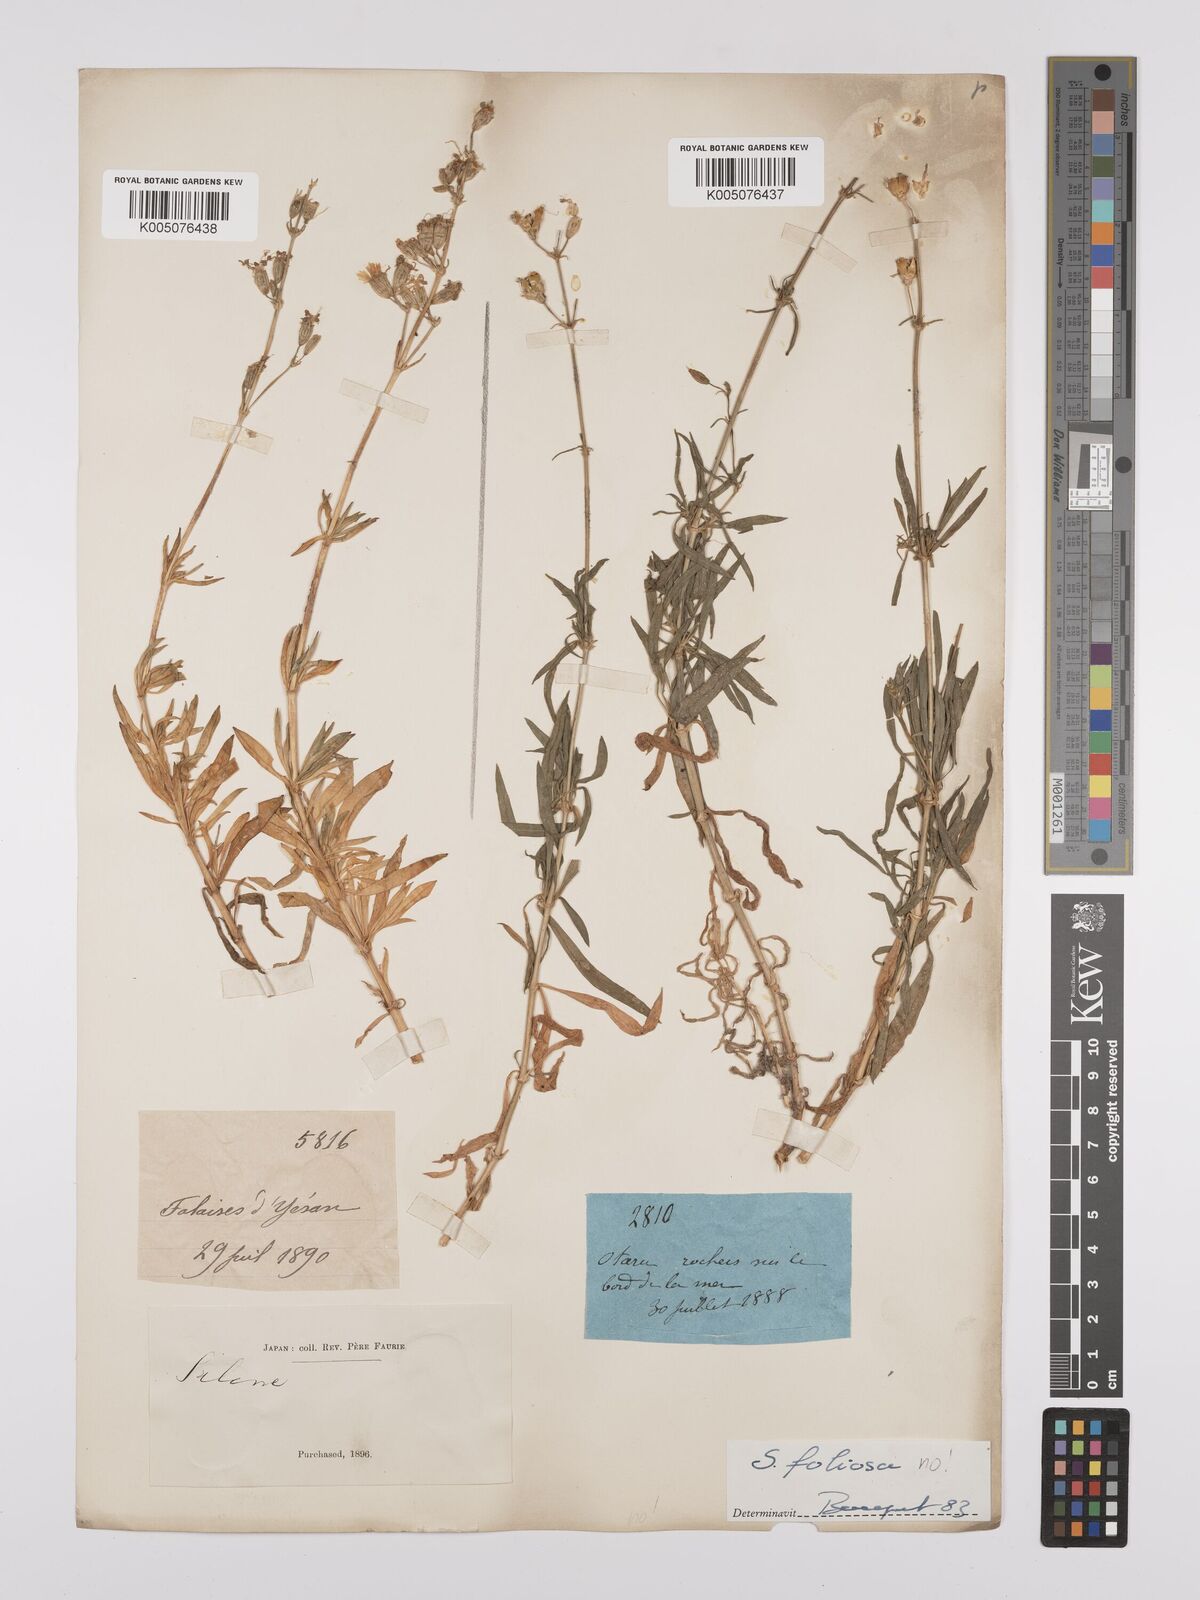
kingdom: Plantae
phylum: Tracheophyta
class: Magnoliopsida
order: Caryophyllales
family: Caryophyllaceae
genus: Silene
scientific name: Silene
